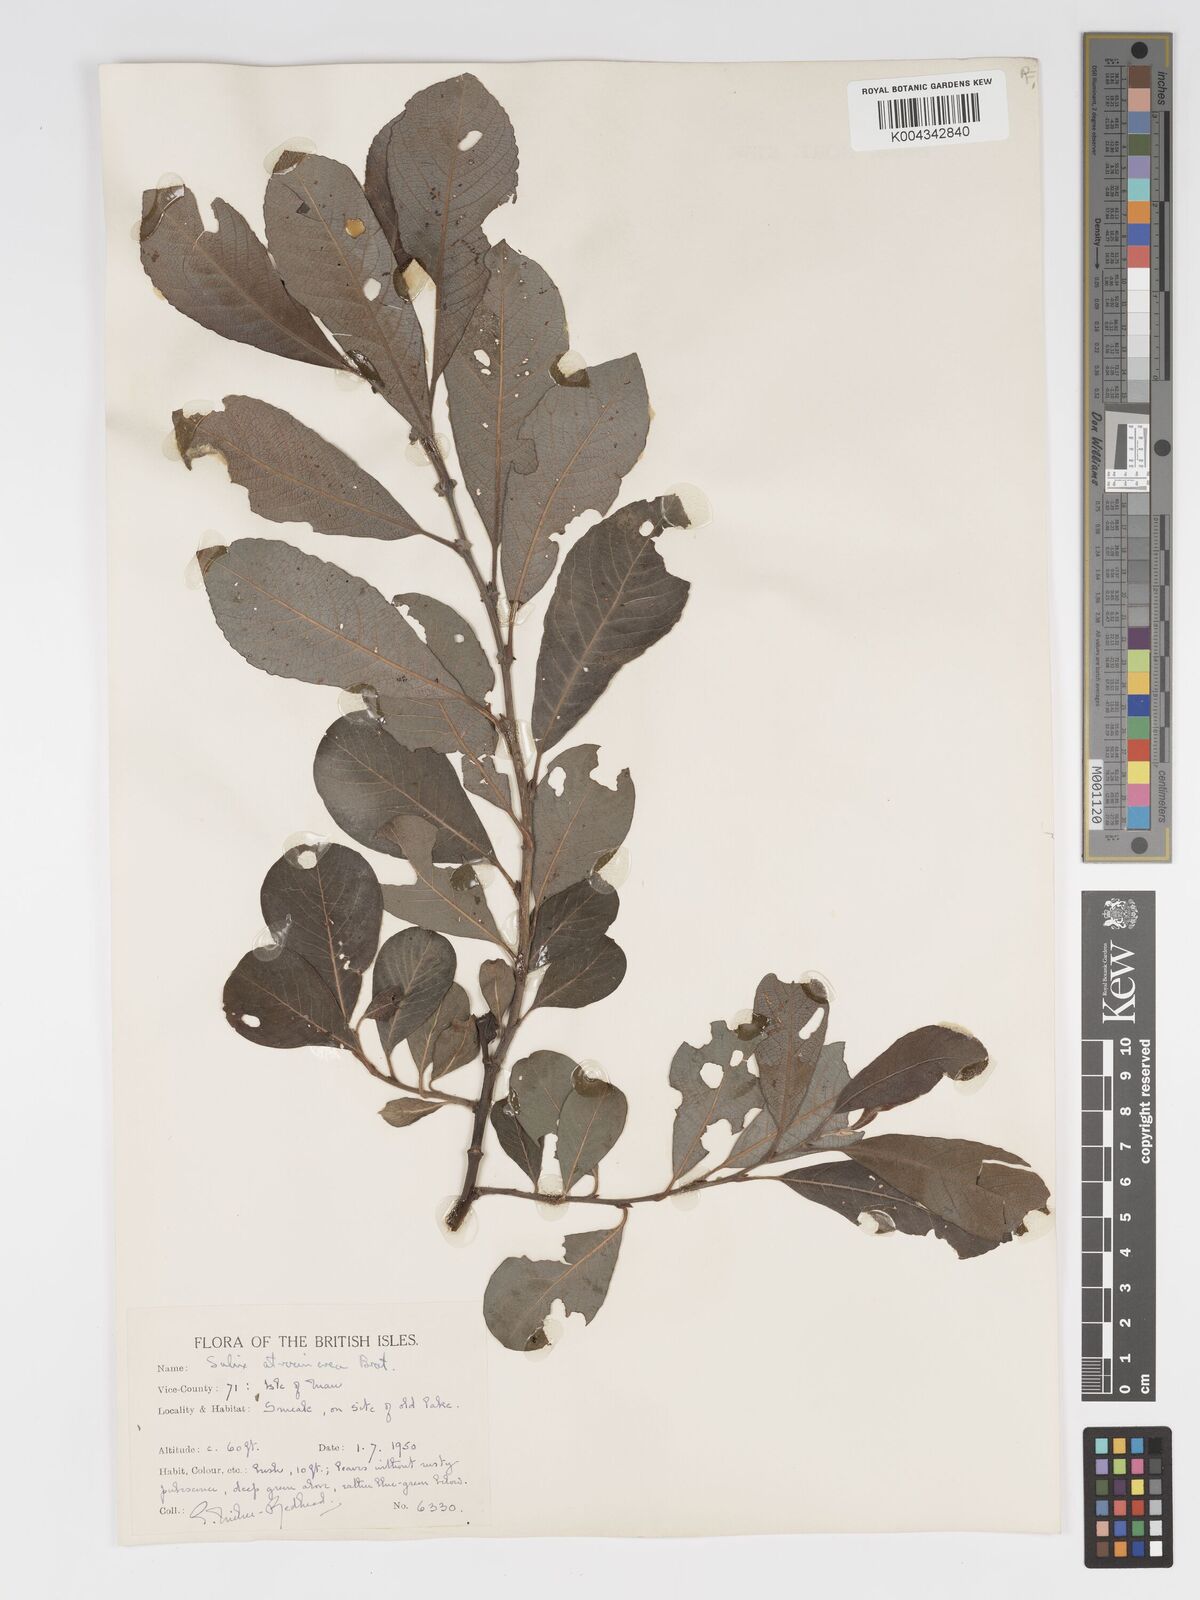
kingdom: Plantae
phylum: Tracheophyta
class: Magnoliopsida
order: Malpighiales
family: Salicaceae
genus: Salix
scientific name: Salix atrocinerea
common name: Rusty willow
